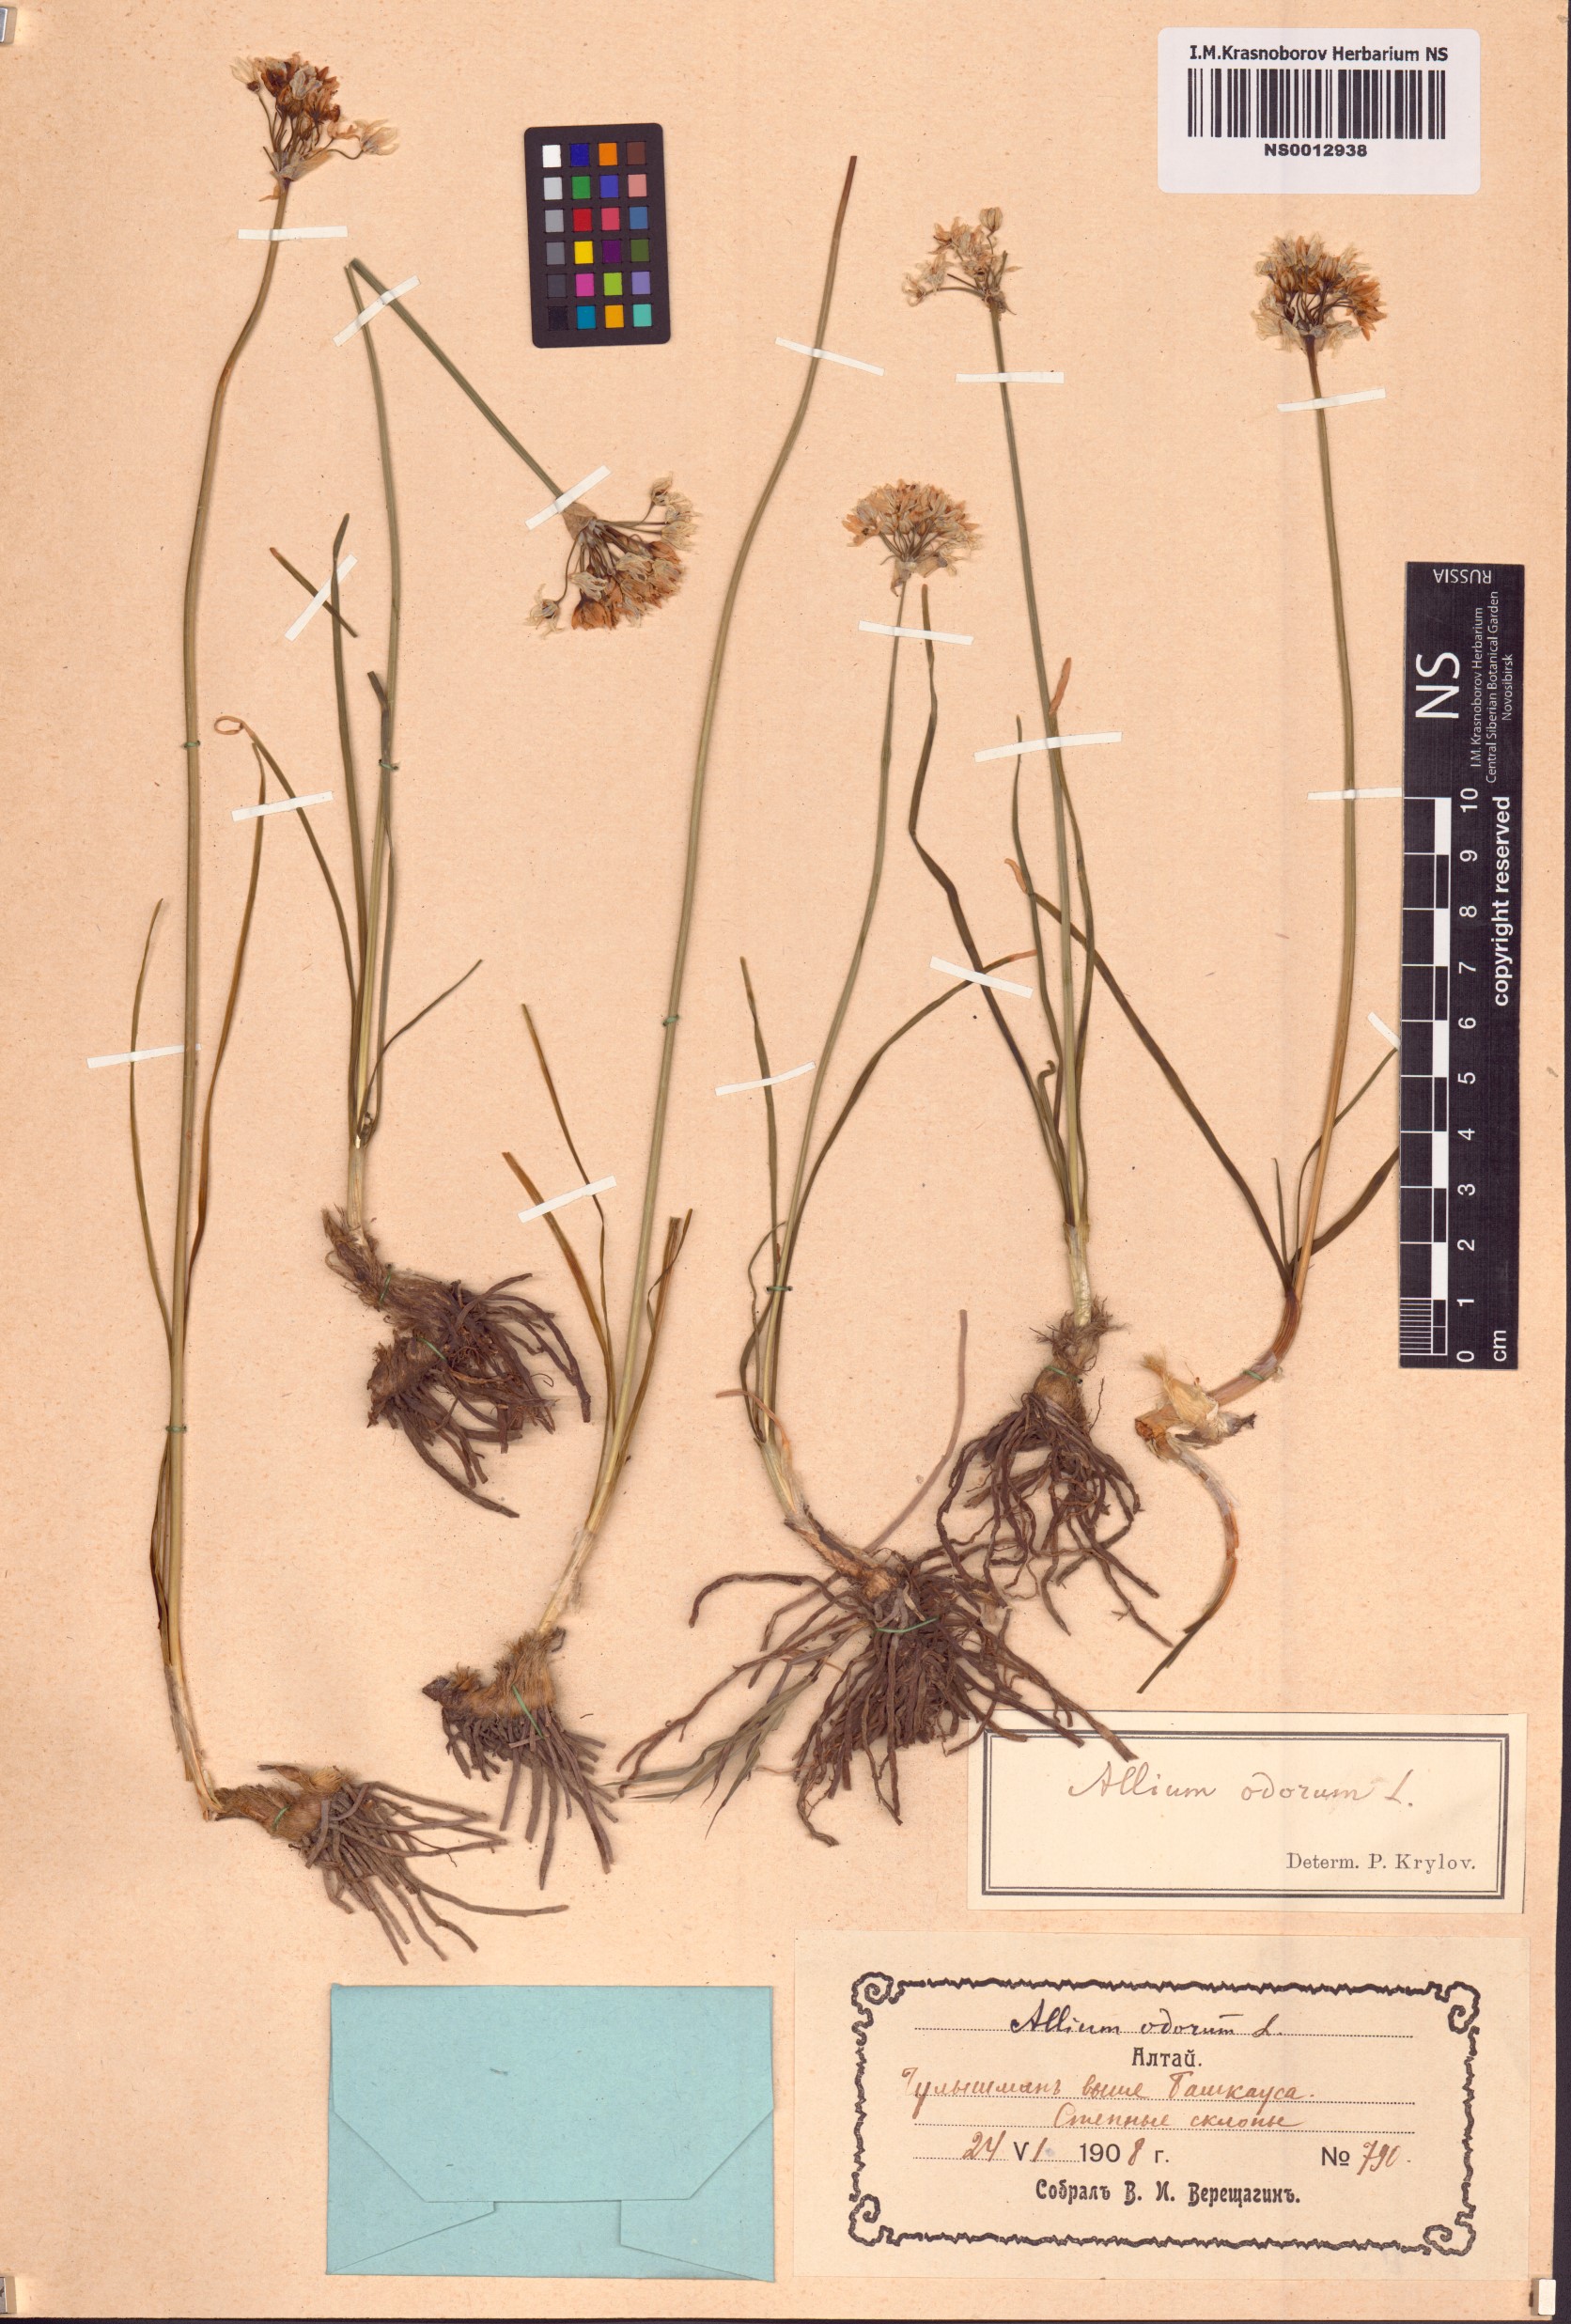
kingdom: Plantae
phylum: Tracheophyta
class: Liliopsida
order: Asparagales
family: Amaryllidaceae
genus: Allium
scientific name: Allium ramosum
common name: Fragrant garlic
